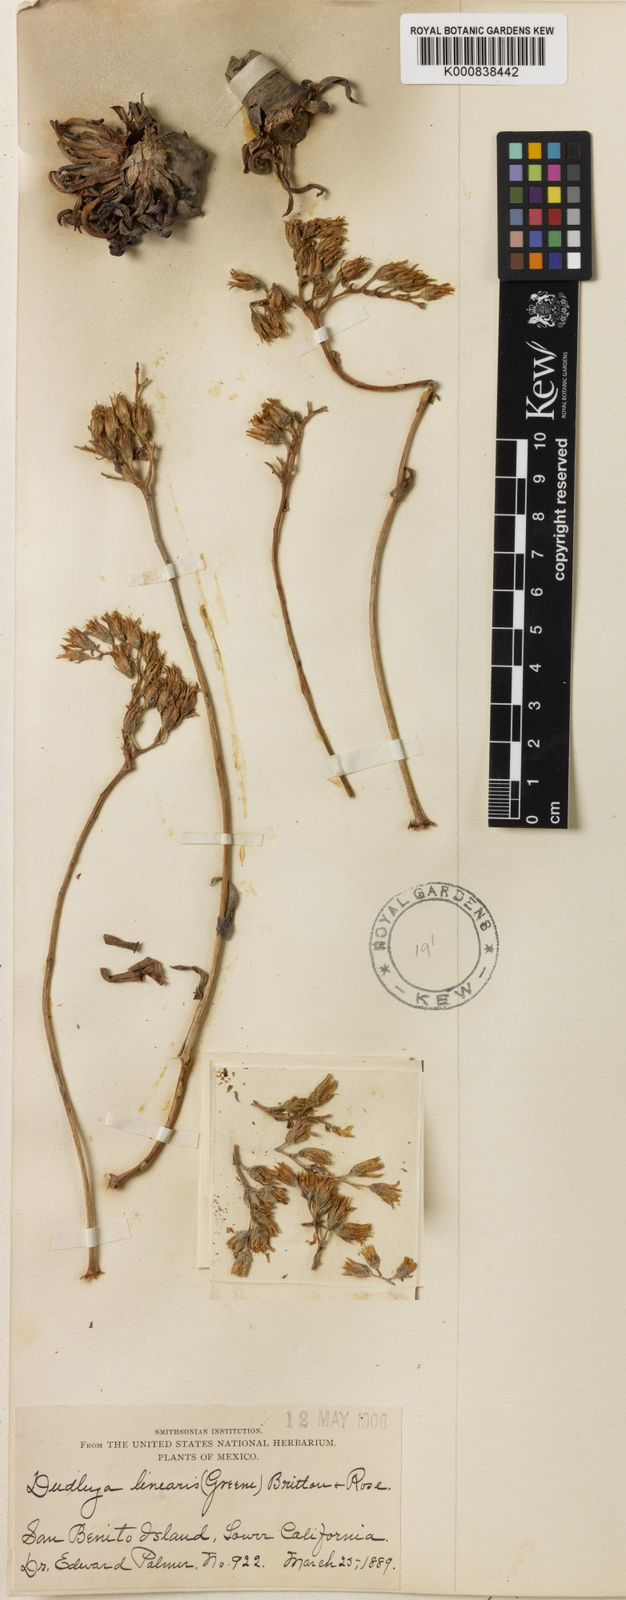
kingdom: Plantae
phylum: Tracheophyta
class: Magnoliopsida
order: Saxifragales
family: Crassulaceae
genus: Dudleya
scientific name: Dudleya linearis
